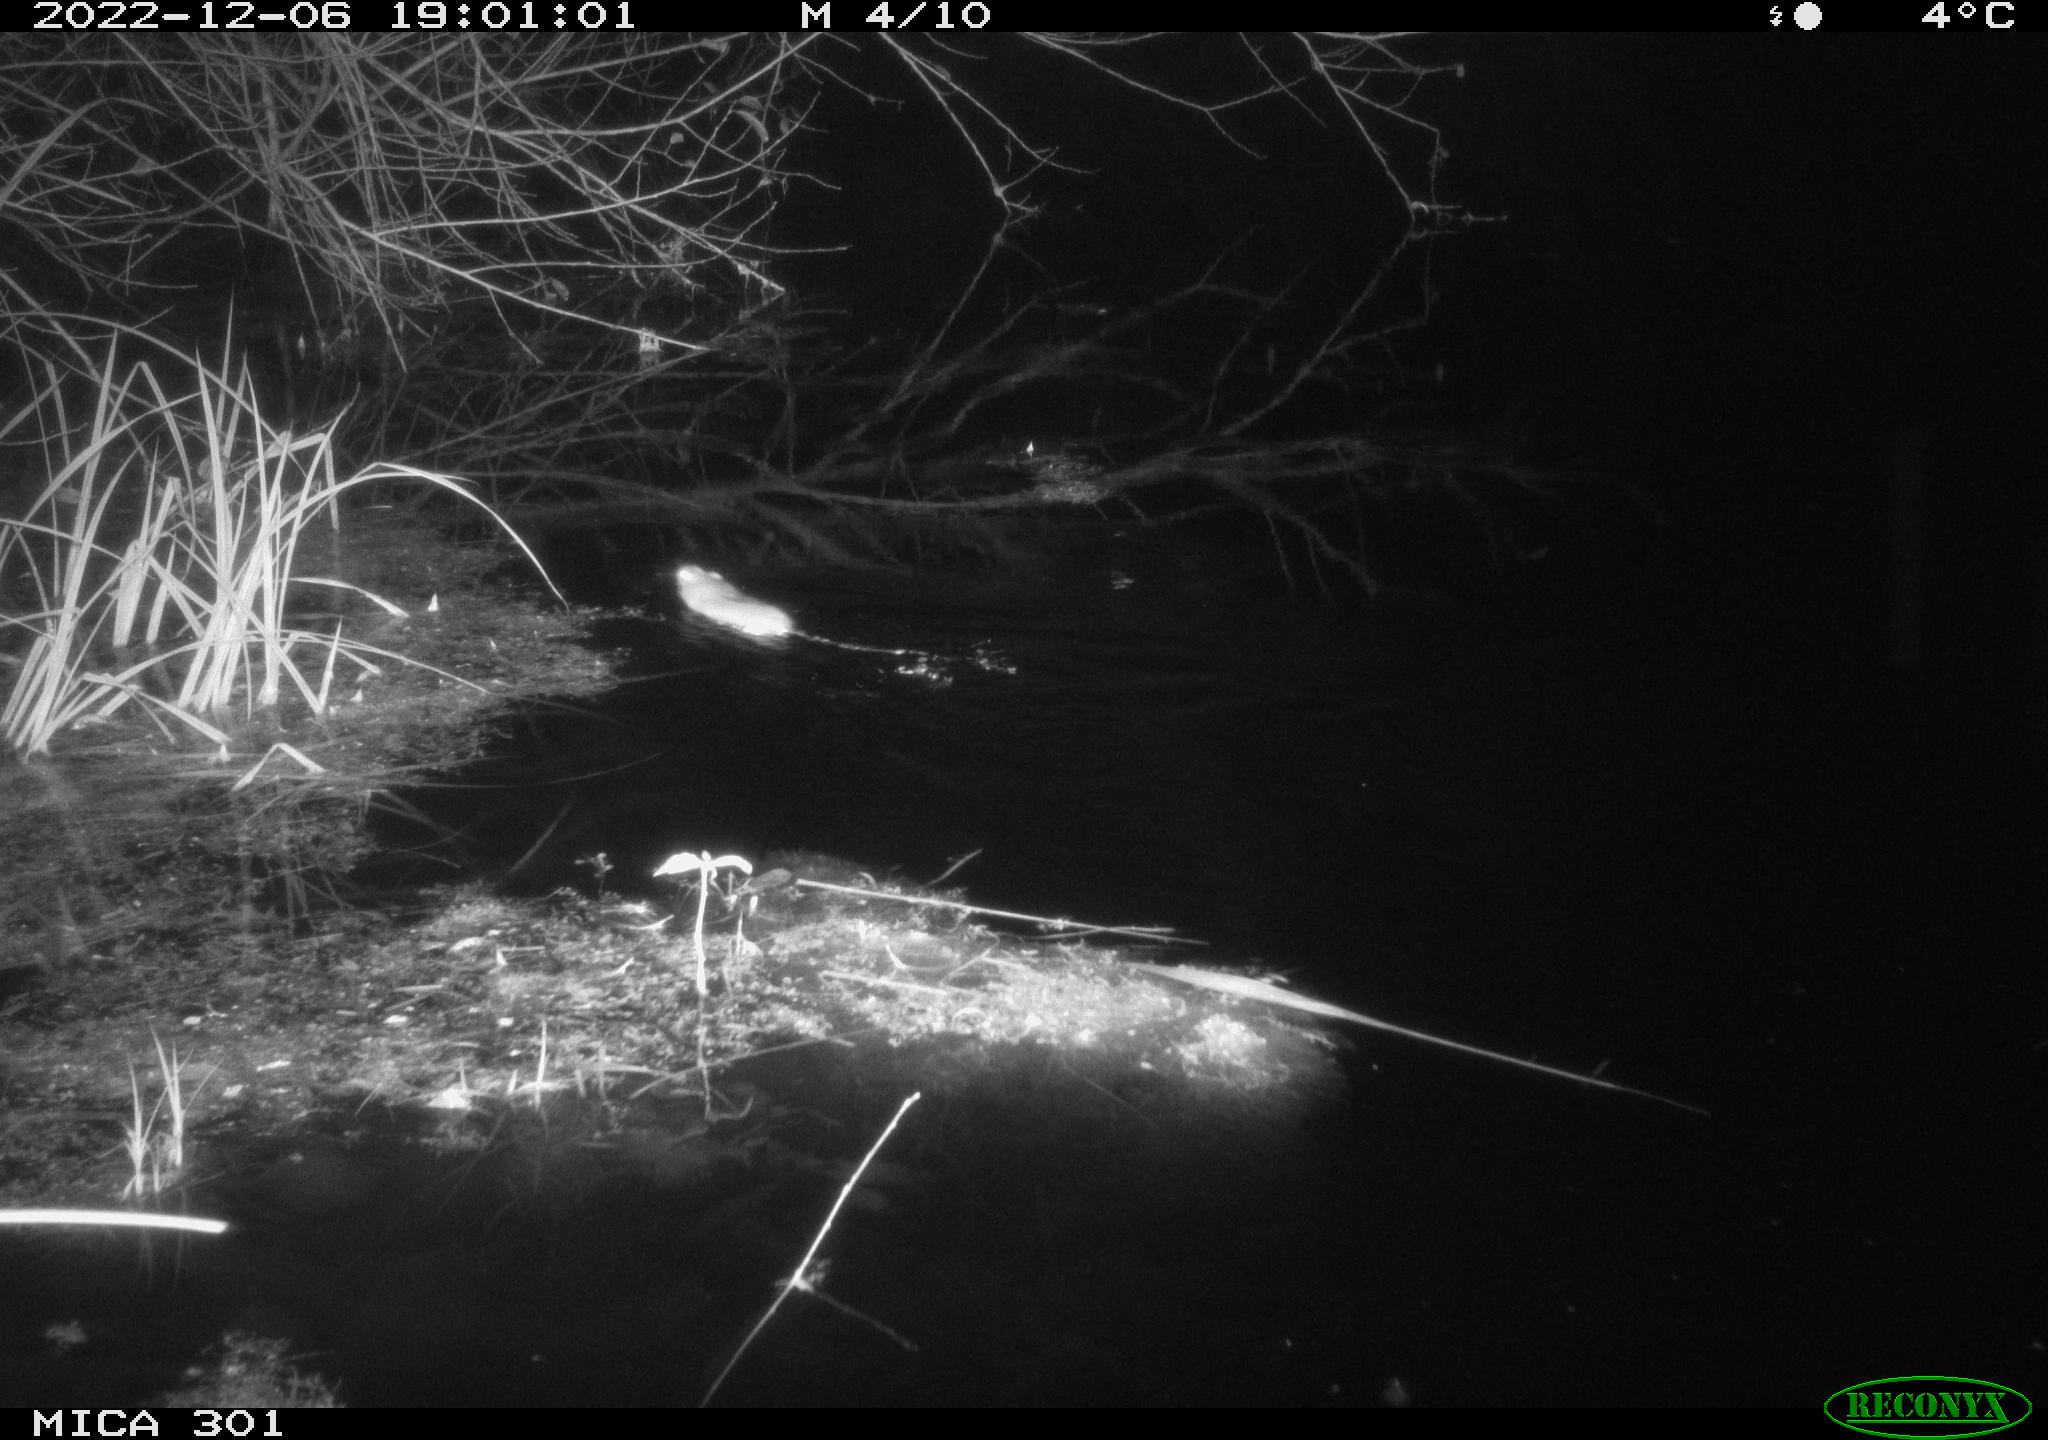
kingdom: Animalia
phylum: Chordata
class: Mammalia
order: Rodentia
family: Muridae
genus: Rattus
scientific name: Rattus norvegicus
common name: Brown rat
